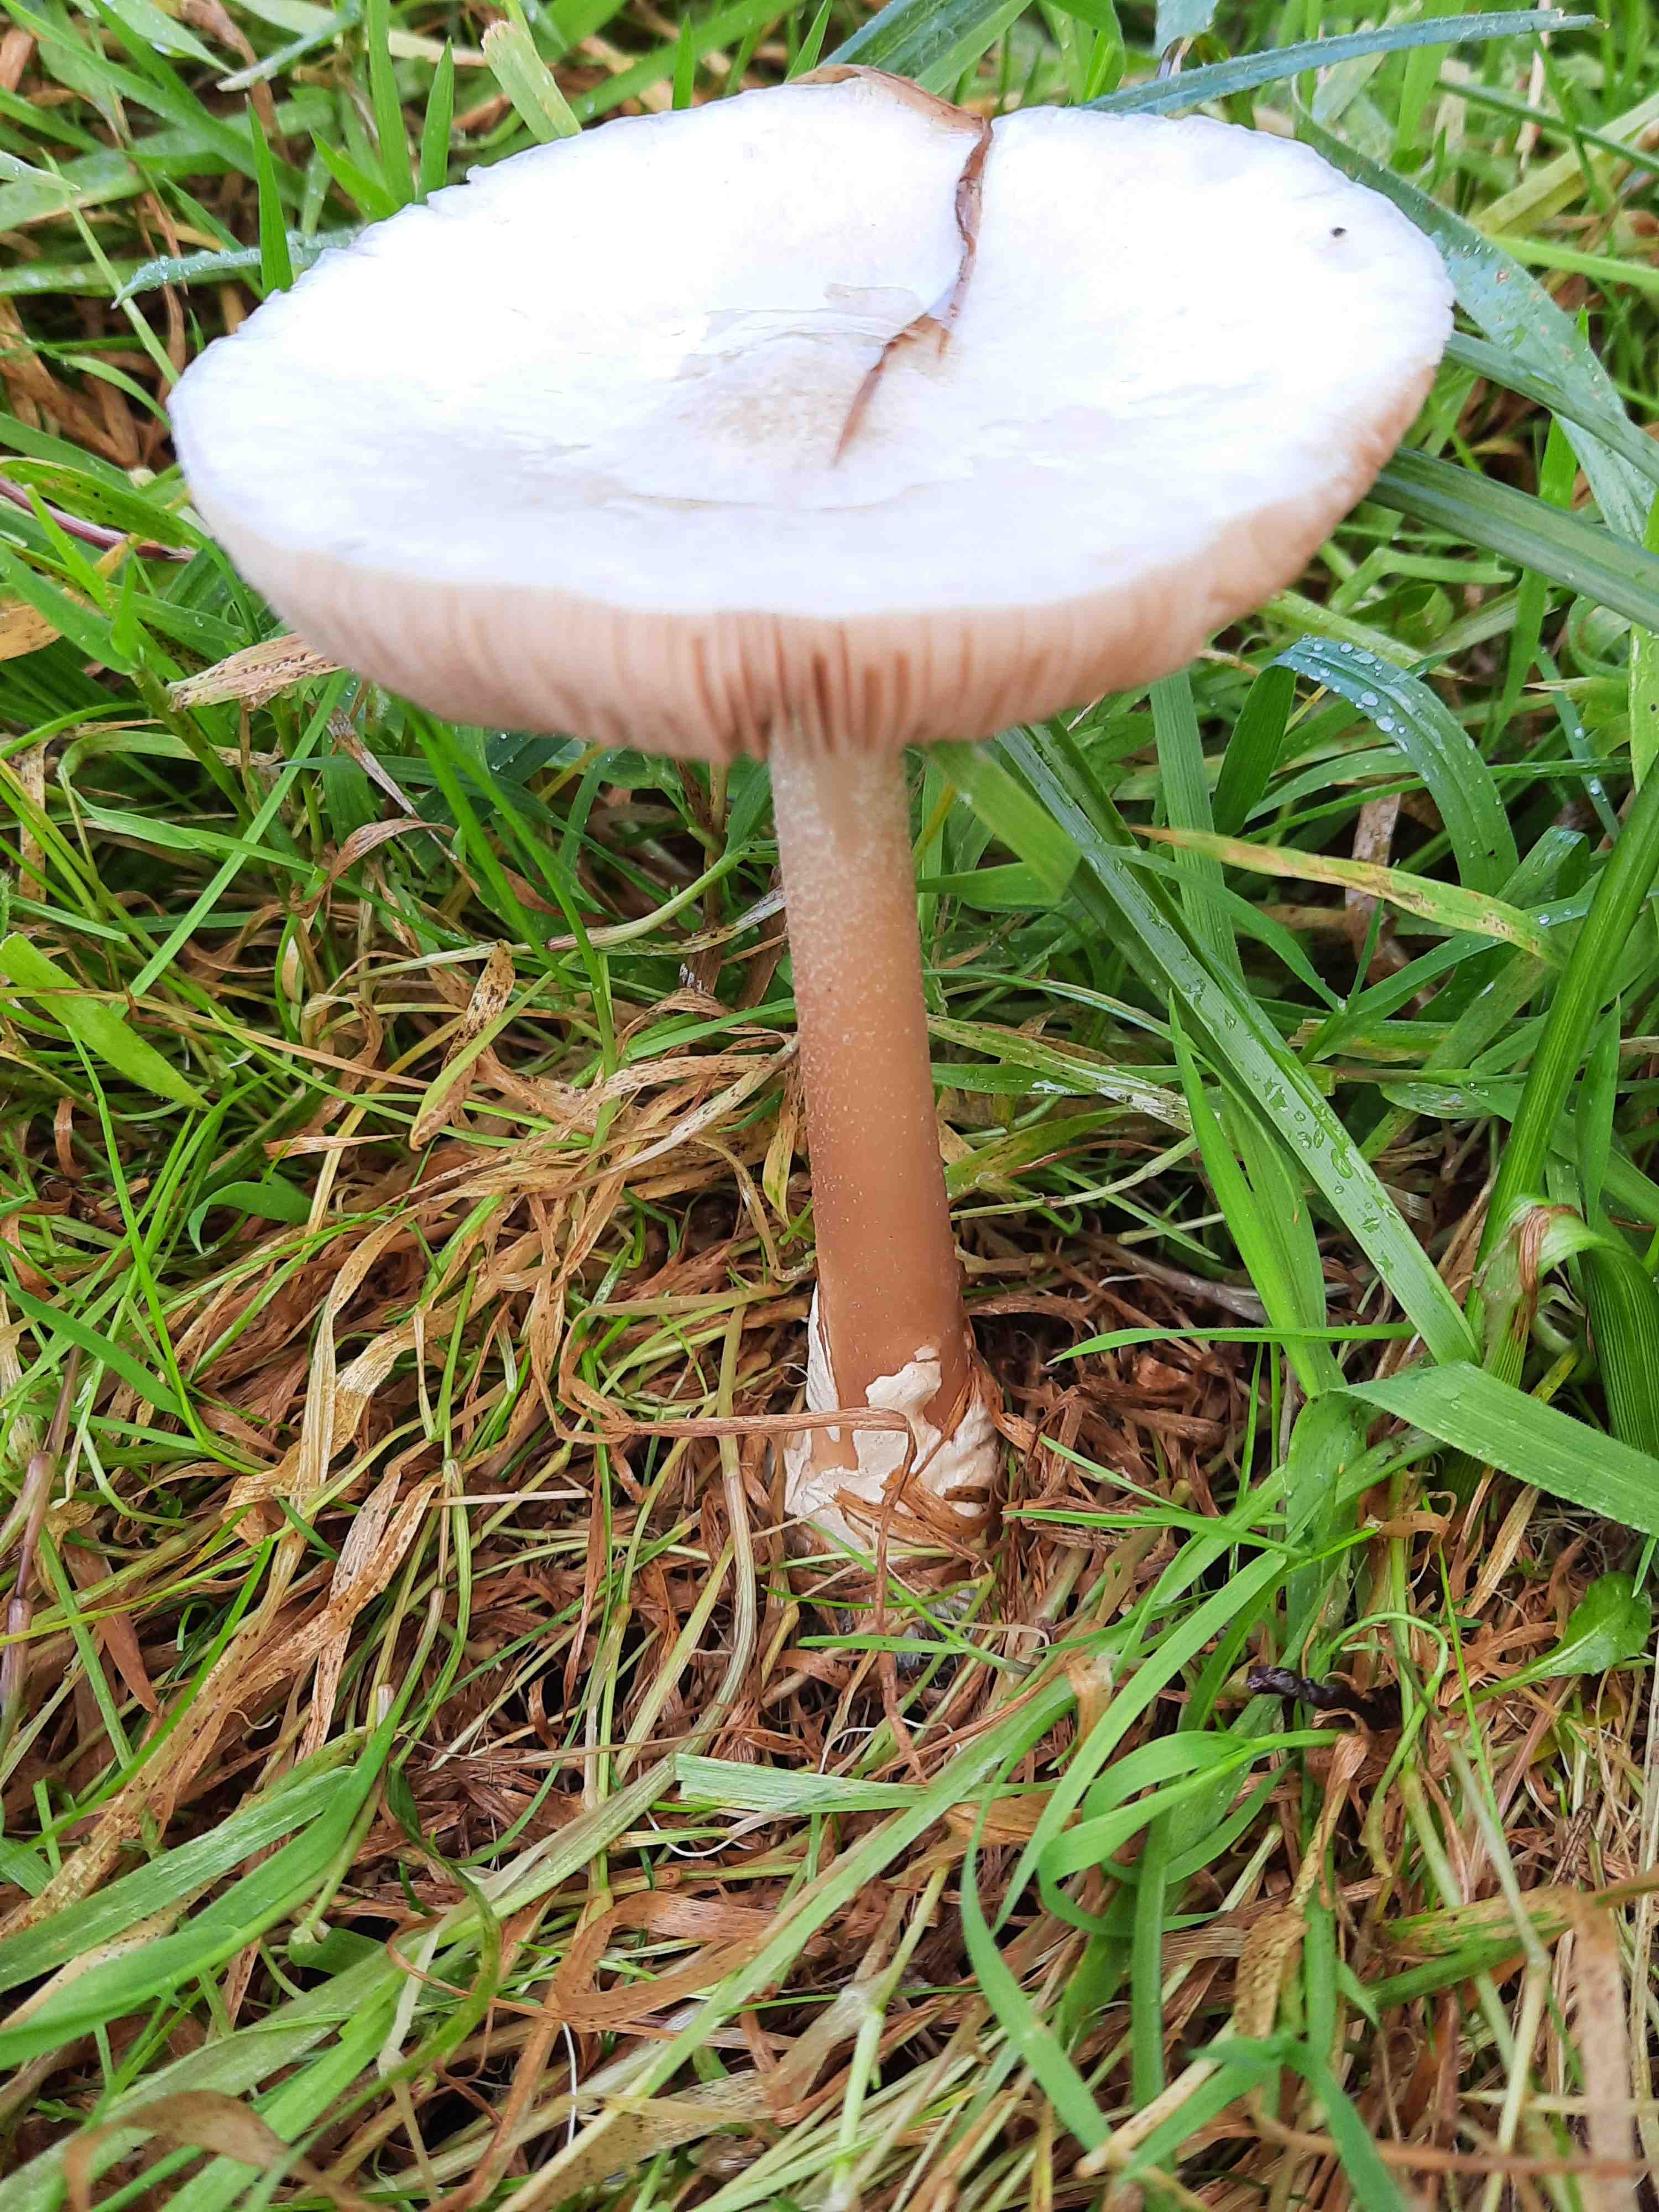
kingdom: Fungi
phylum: Basidiomycota
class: Agaricomycetes
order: Agaricales
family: Pluteaceae
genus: Volvopluteus
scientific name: Volvopluteus gloiocephalus
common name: høj posesvamp
